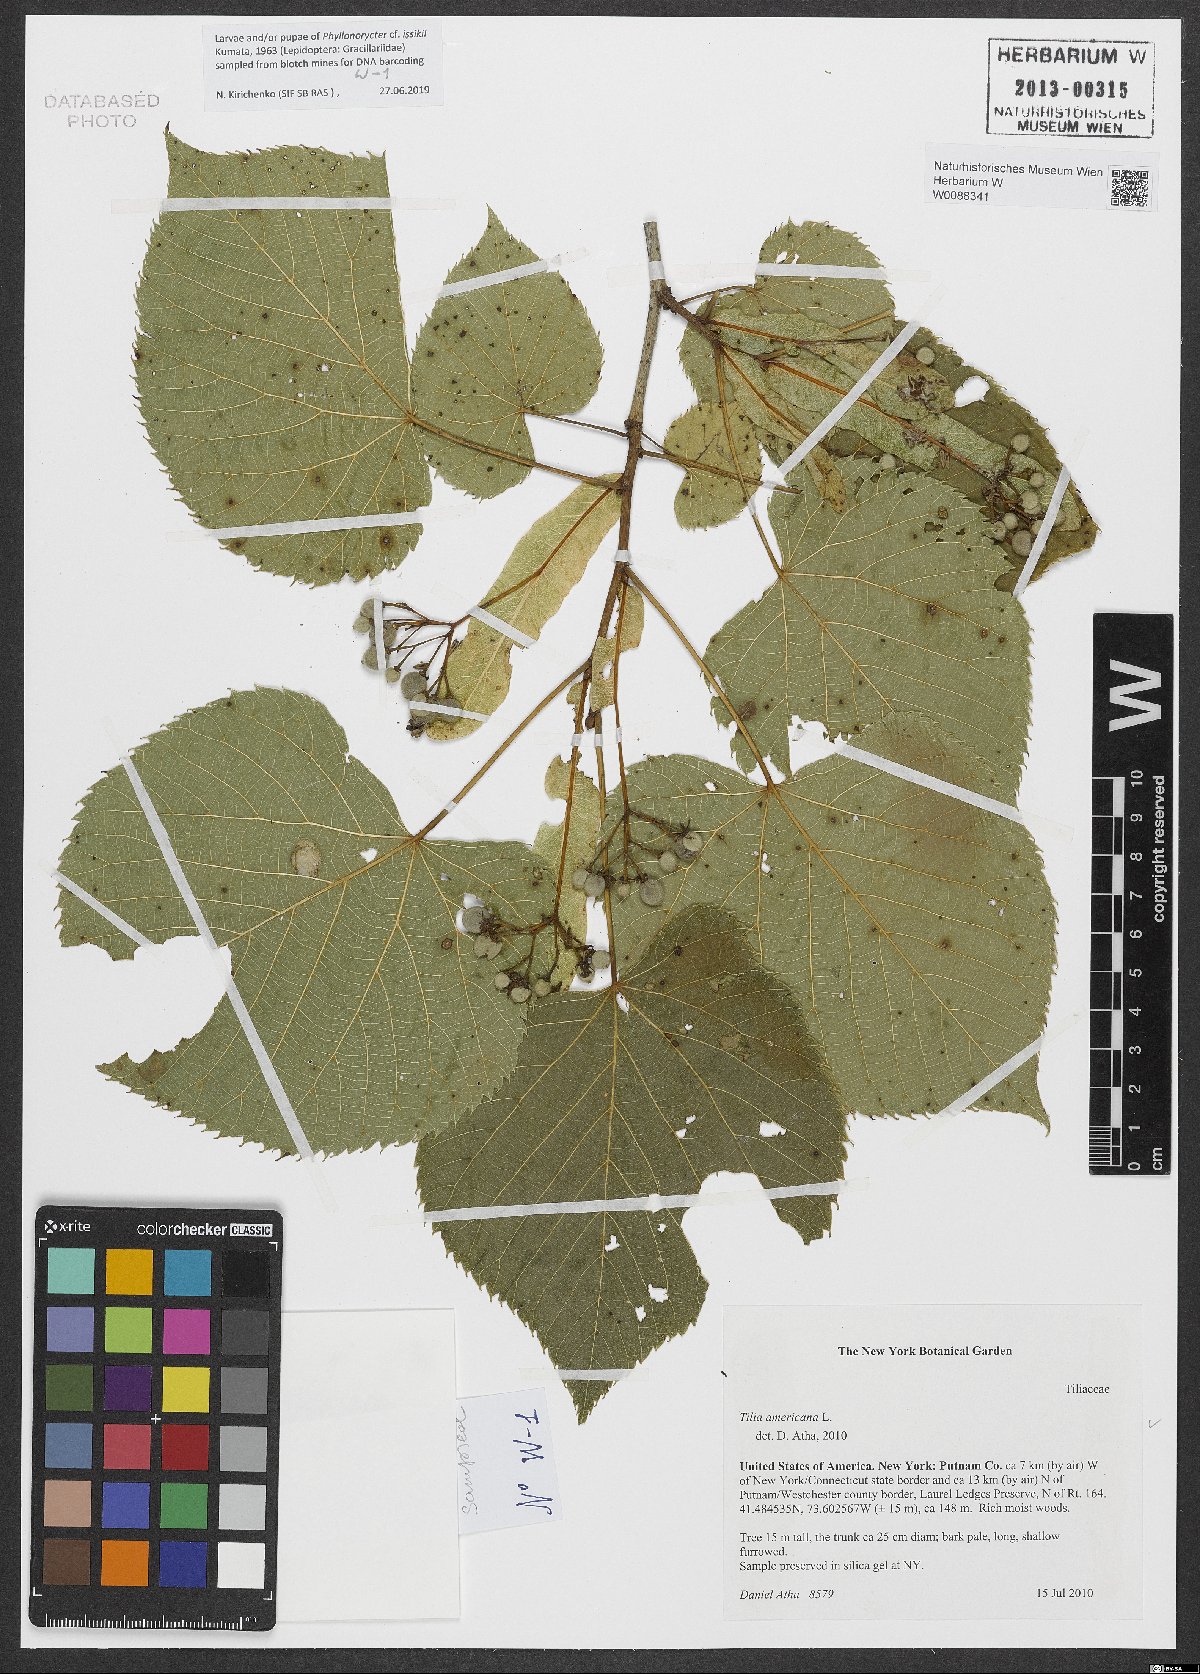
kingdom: Plantae
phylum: Tracheophyta
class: Magnoliopsida
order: Malvales
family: Malvaceae
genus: Tilia
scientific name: Tilia americana
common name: Basswood
